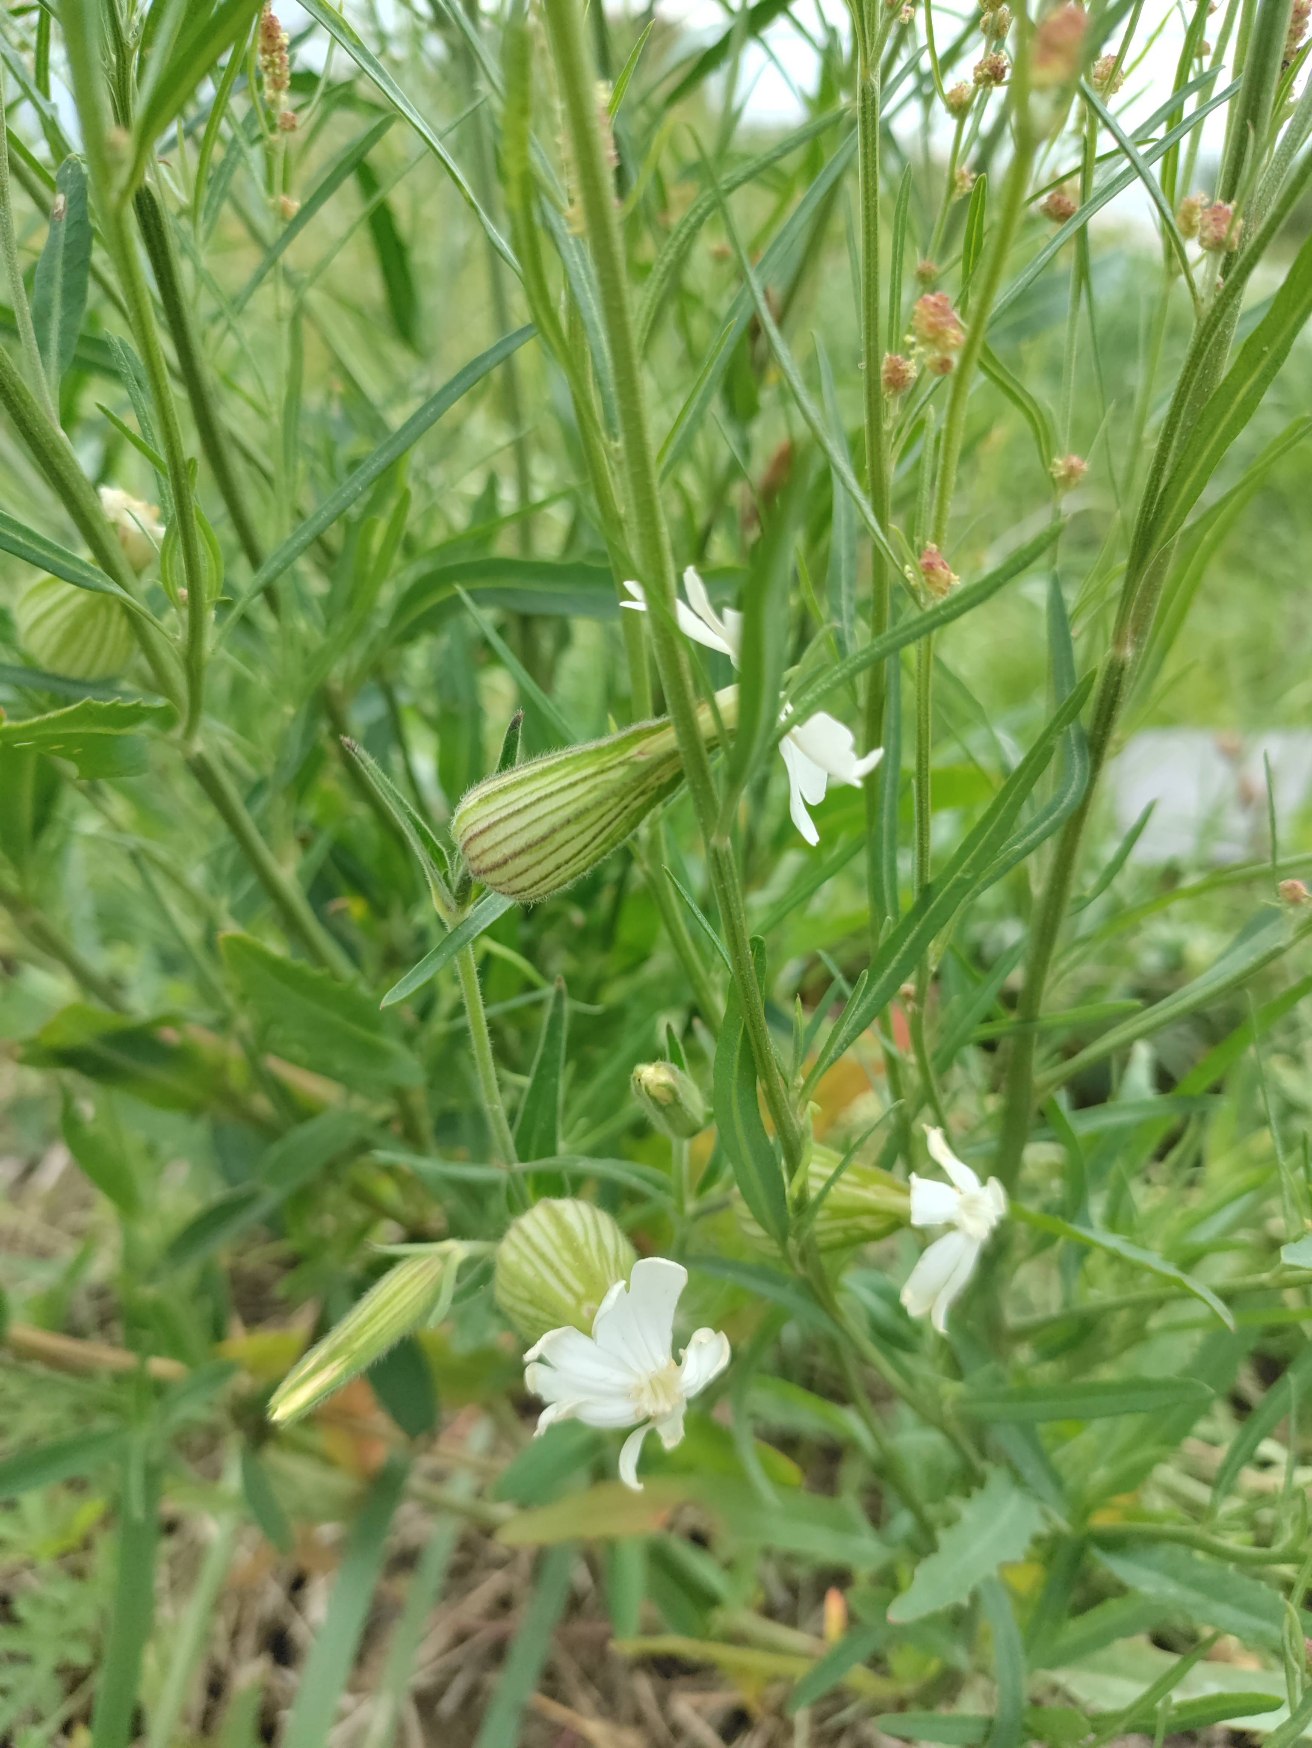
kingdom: Plantae
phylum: Tracheophyta
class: Magnoliopsida
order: Caryophyllales
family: Caryophyllaceae
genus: Silene
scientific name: Silene latifolia
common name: Aftenpragtstjerne
